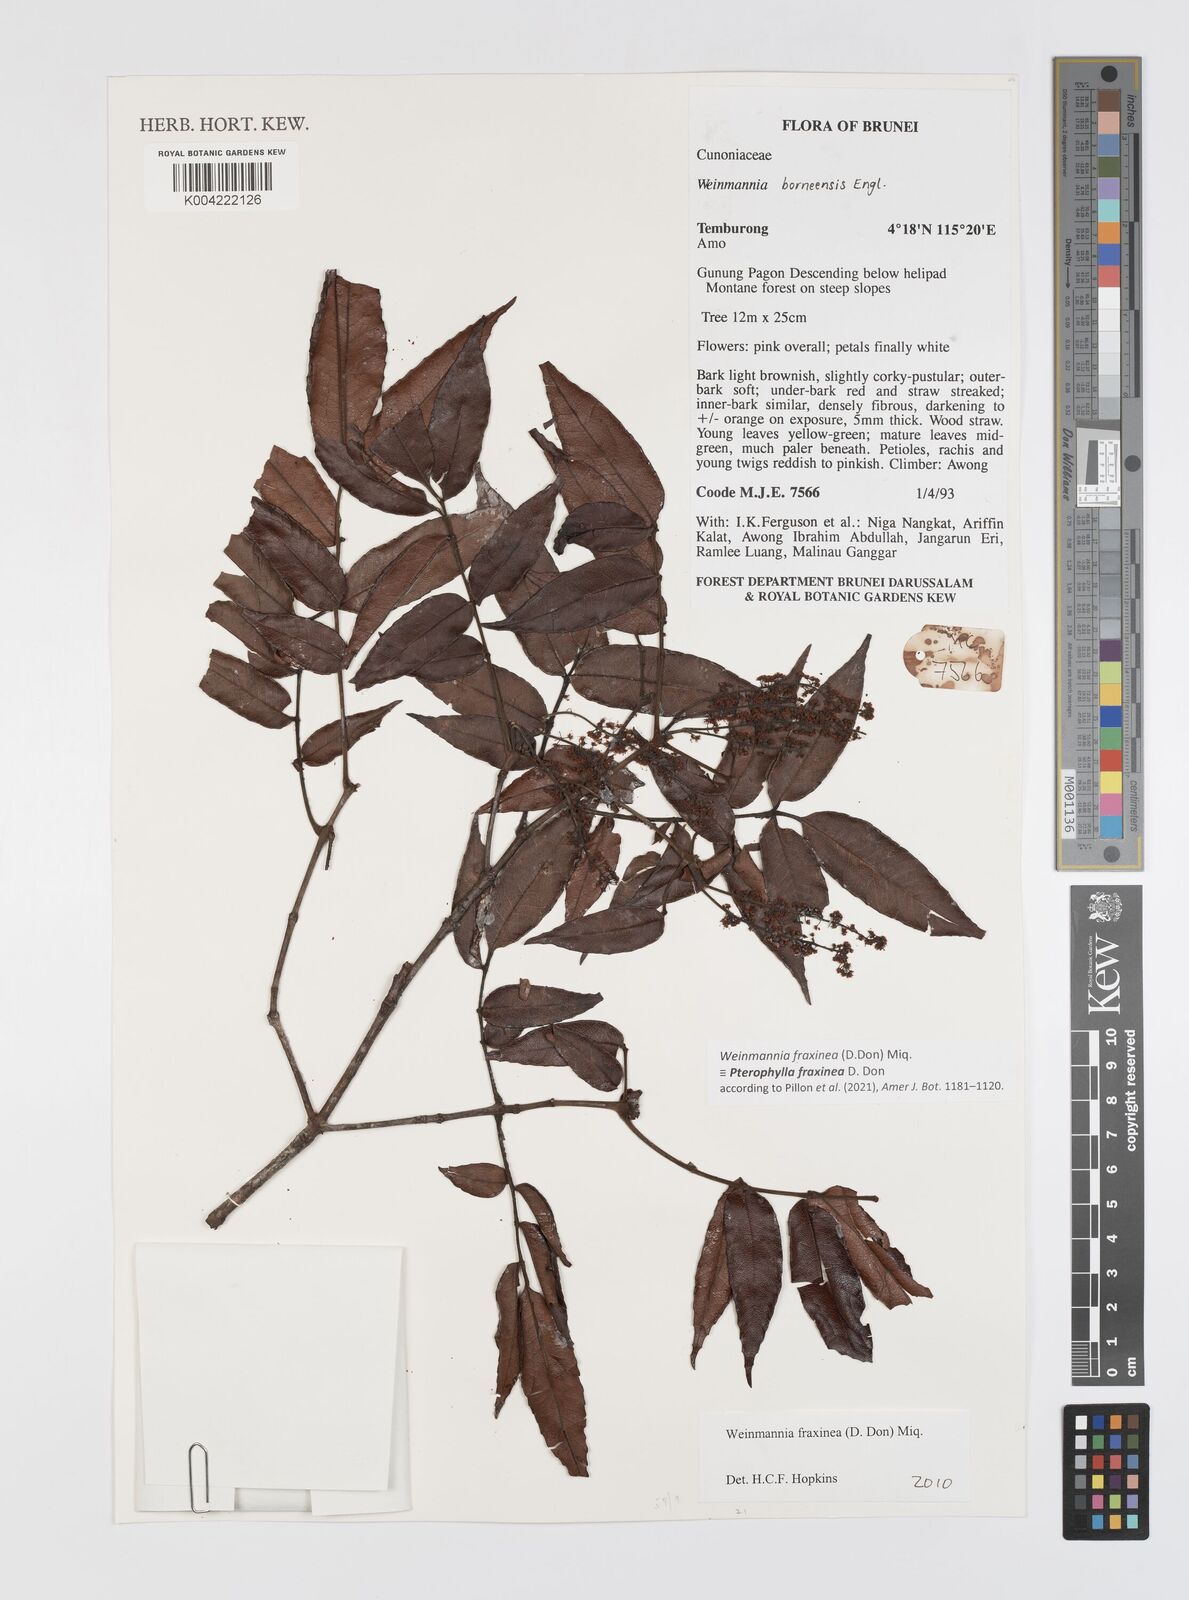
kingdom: Plantae
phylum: Tracheophyta
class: Magnoliopsida
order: Oxalidales
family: Cunoniaceae
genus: Pterophylla
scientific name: Pterophylla fraxinea
